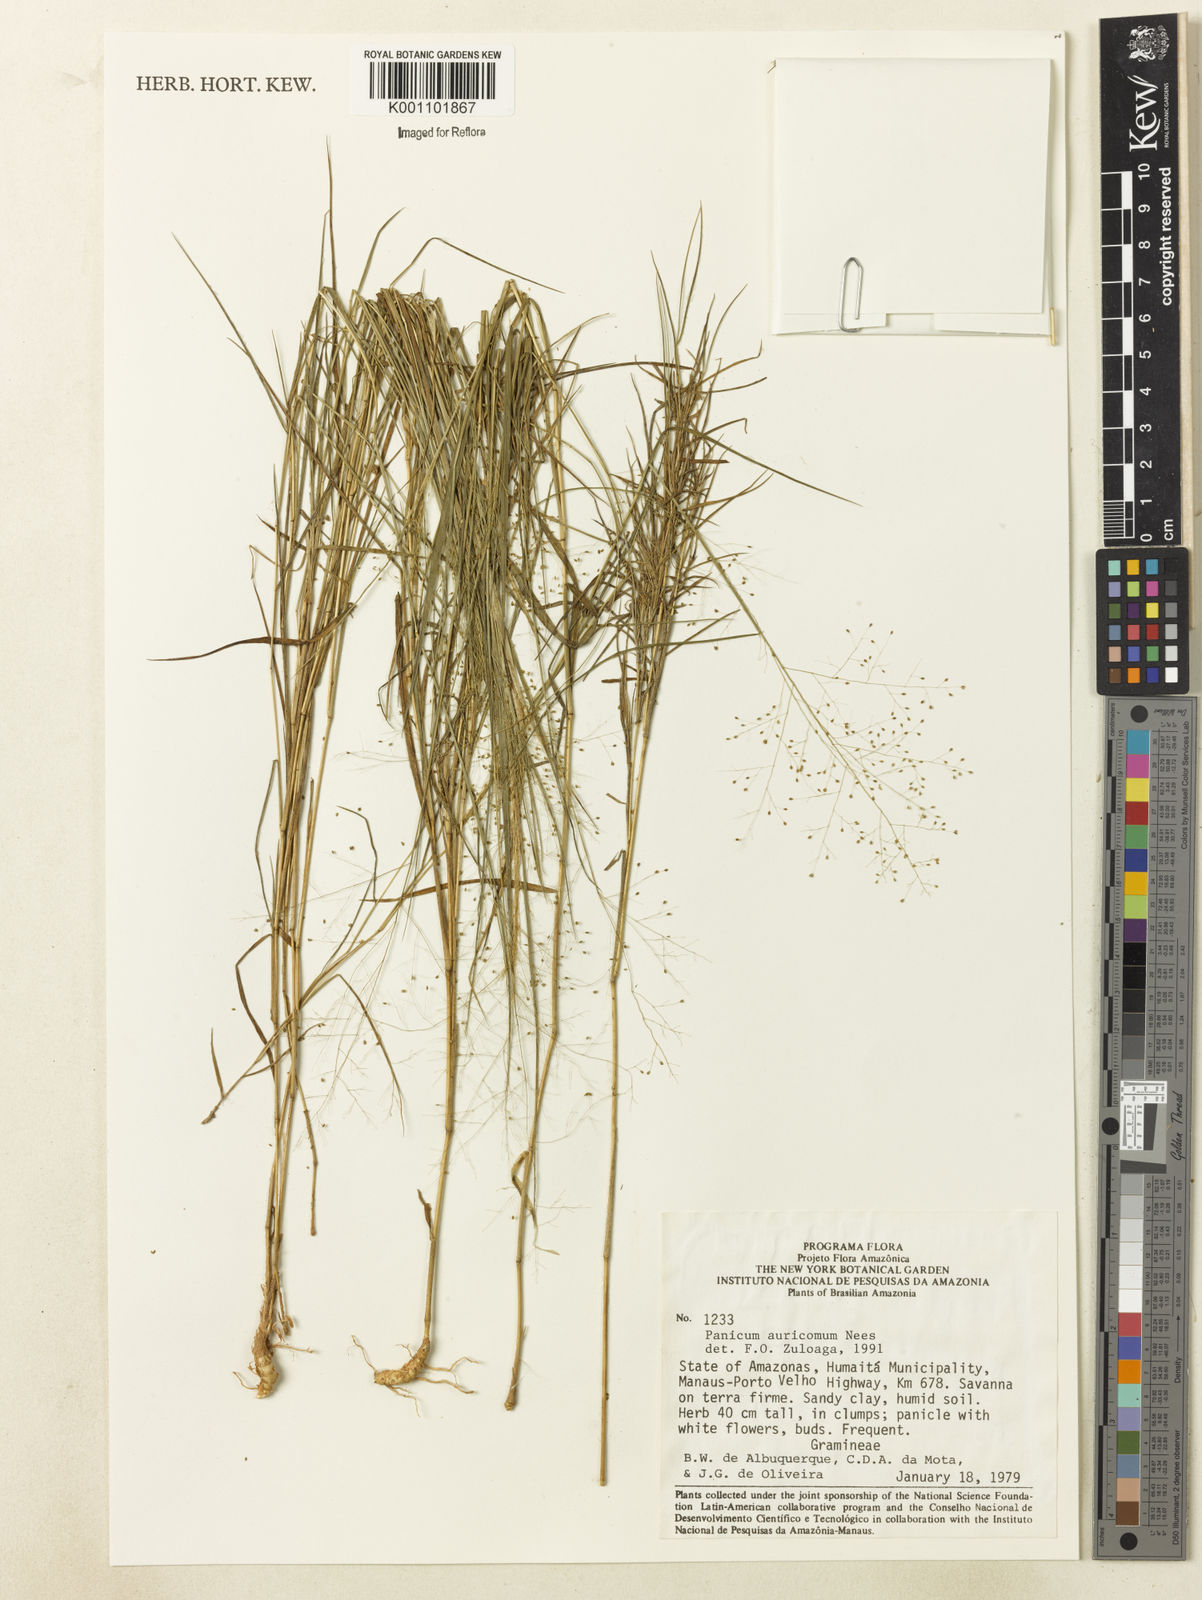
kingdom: Plantae
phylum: Tracheophyta
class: Liliopsida
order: Poales
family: Poaceae
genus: Trichanthecium
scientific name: Trichanthecium auricomum
